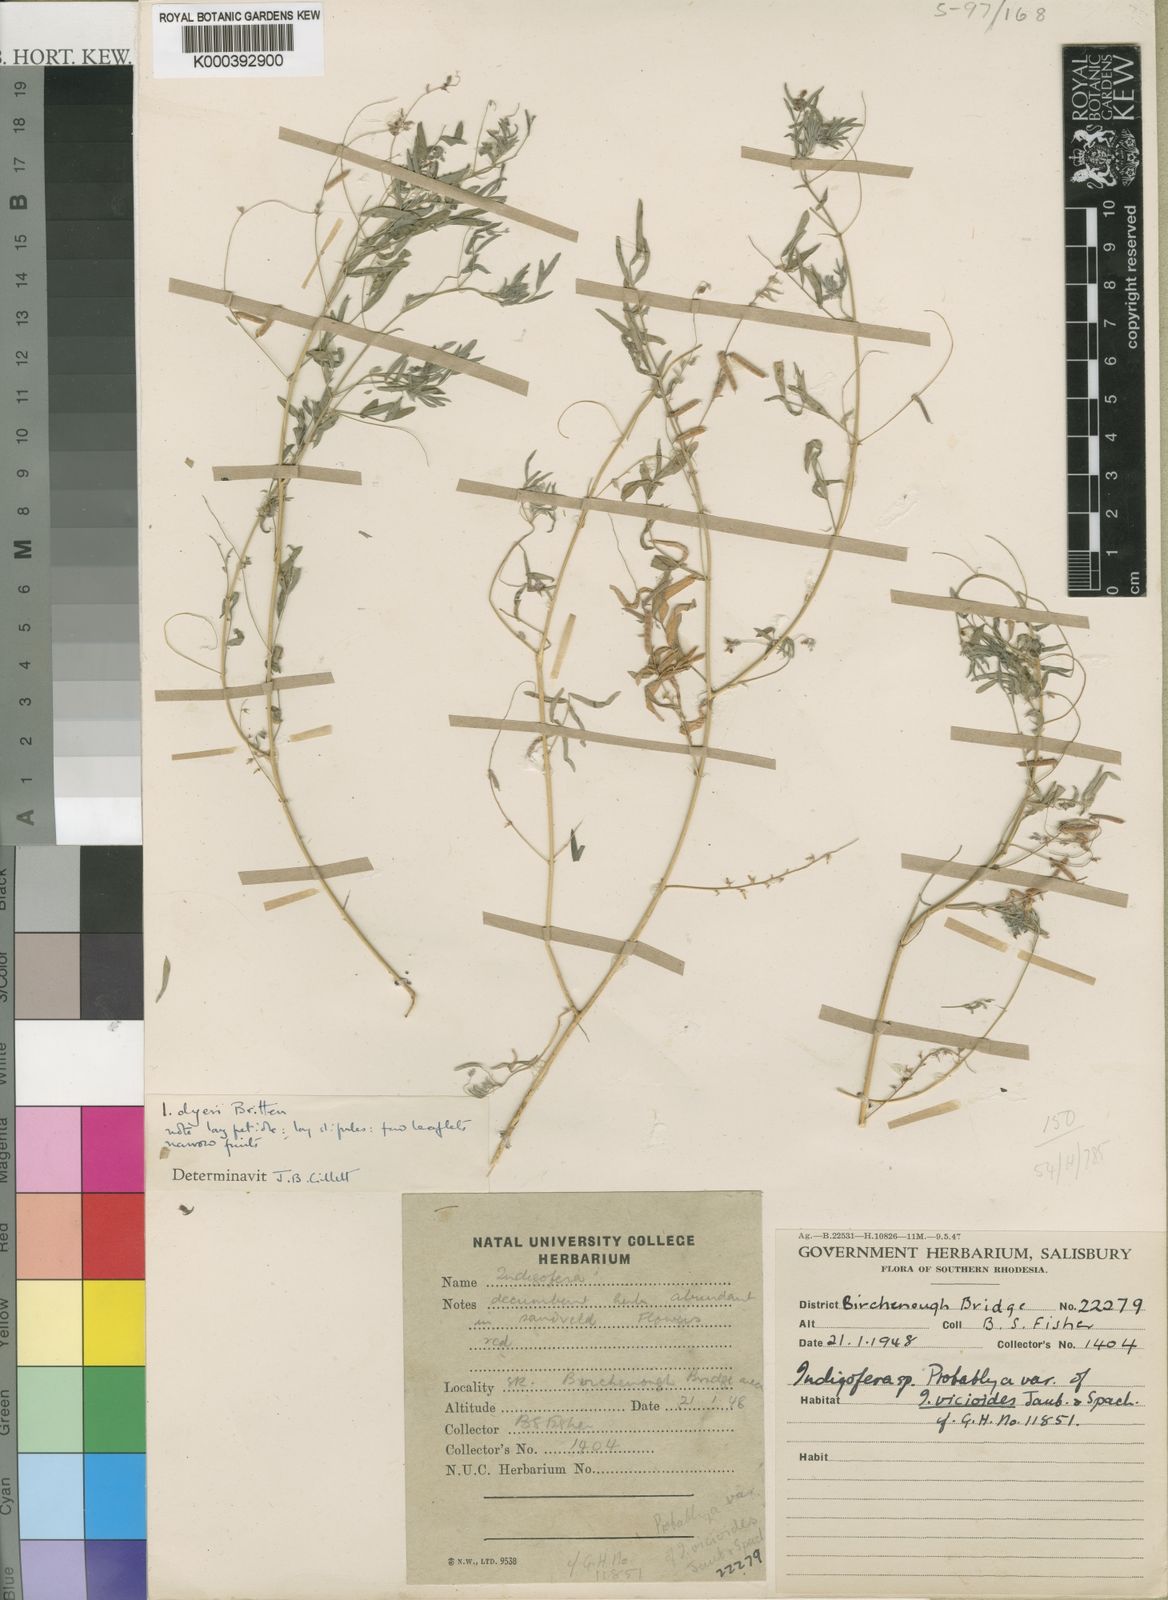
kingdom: Plantae
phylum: Tracheophyta
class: Magnoliopsida
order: Fabales
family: Fabaceae
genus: Indigofera
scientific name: Indigofera dyeri
